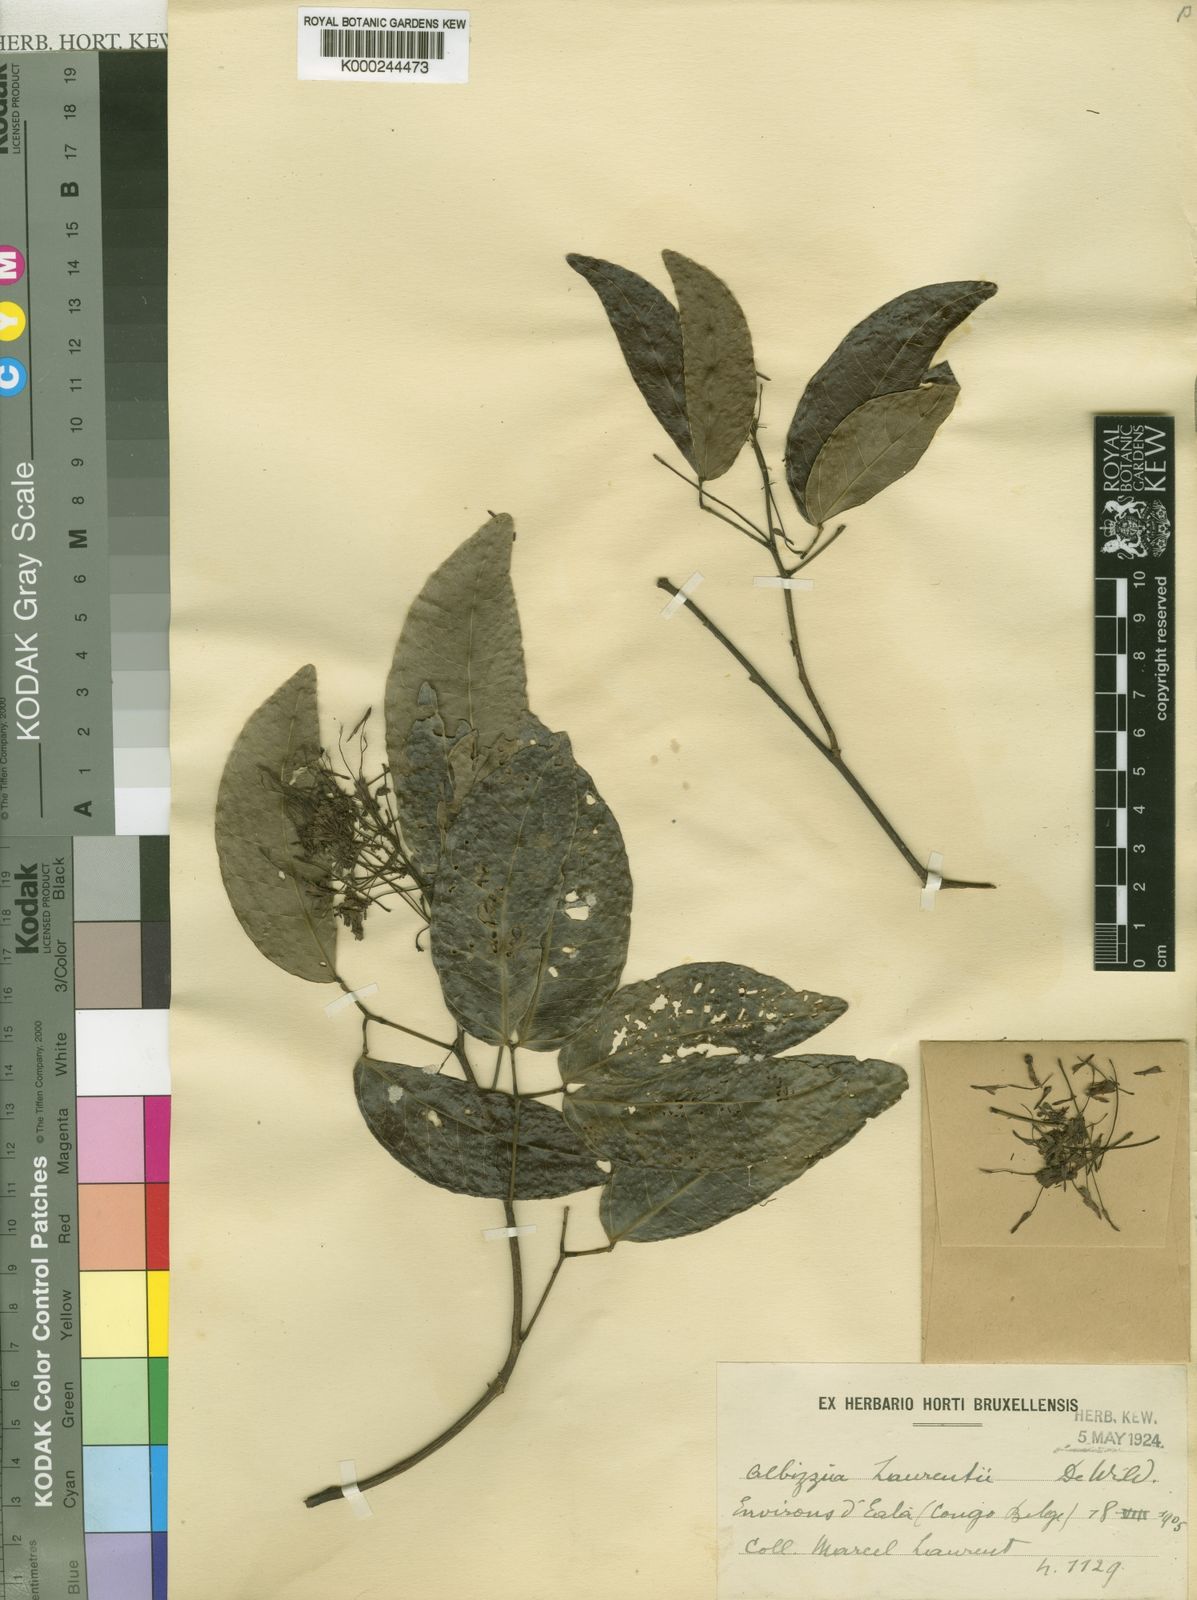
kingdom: Plantae
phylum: Tracheophyta
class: Magnoliopsida
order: Fabales
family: Fabaceae
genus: Albizia
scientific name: Albizia laurentii
